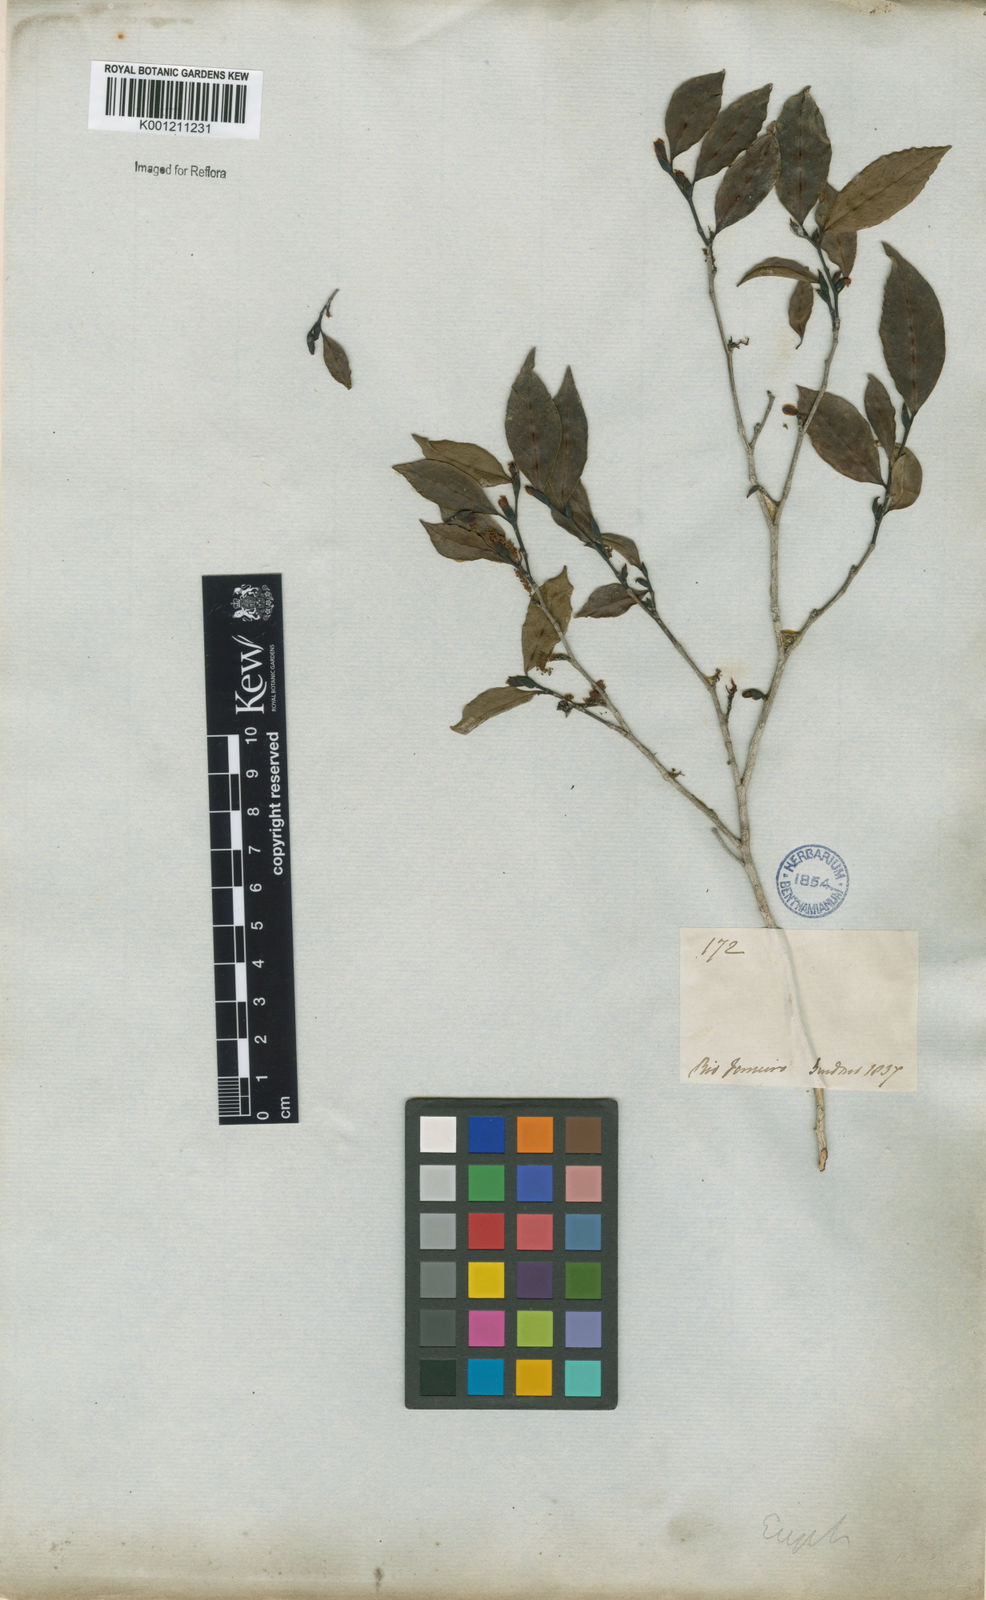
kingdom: Plantae
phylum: Tracheophyta
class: Magnoliopsida
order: Malpighiales
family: Euphorbiaceae
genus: Actinostemon
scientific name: Actinostemon
